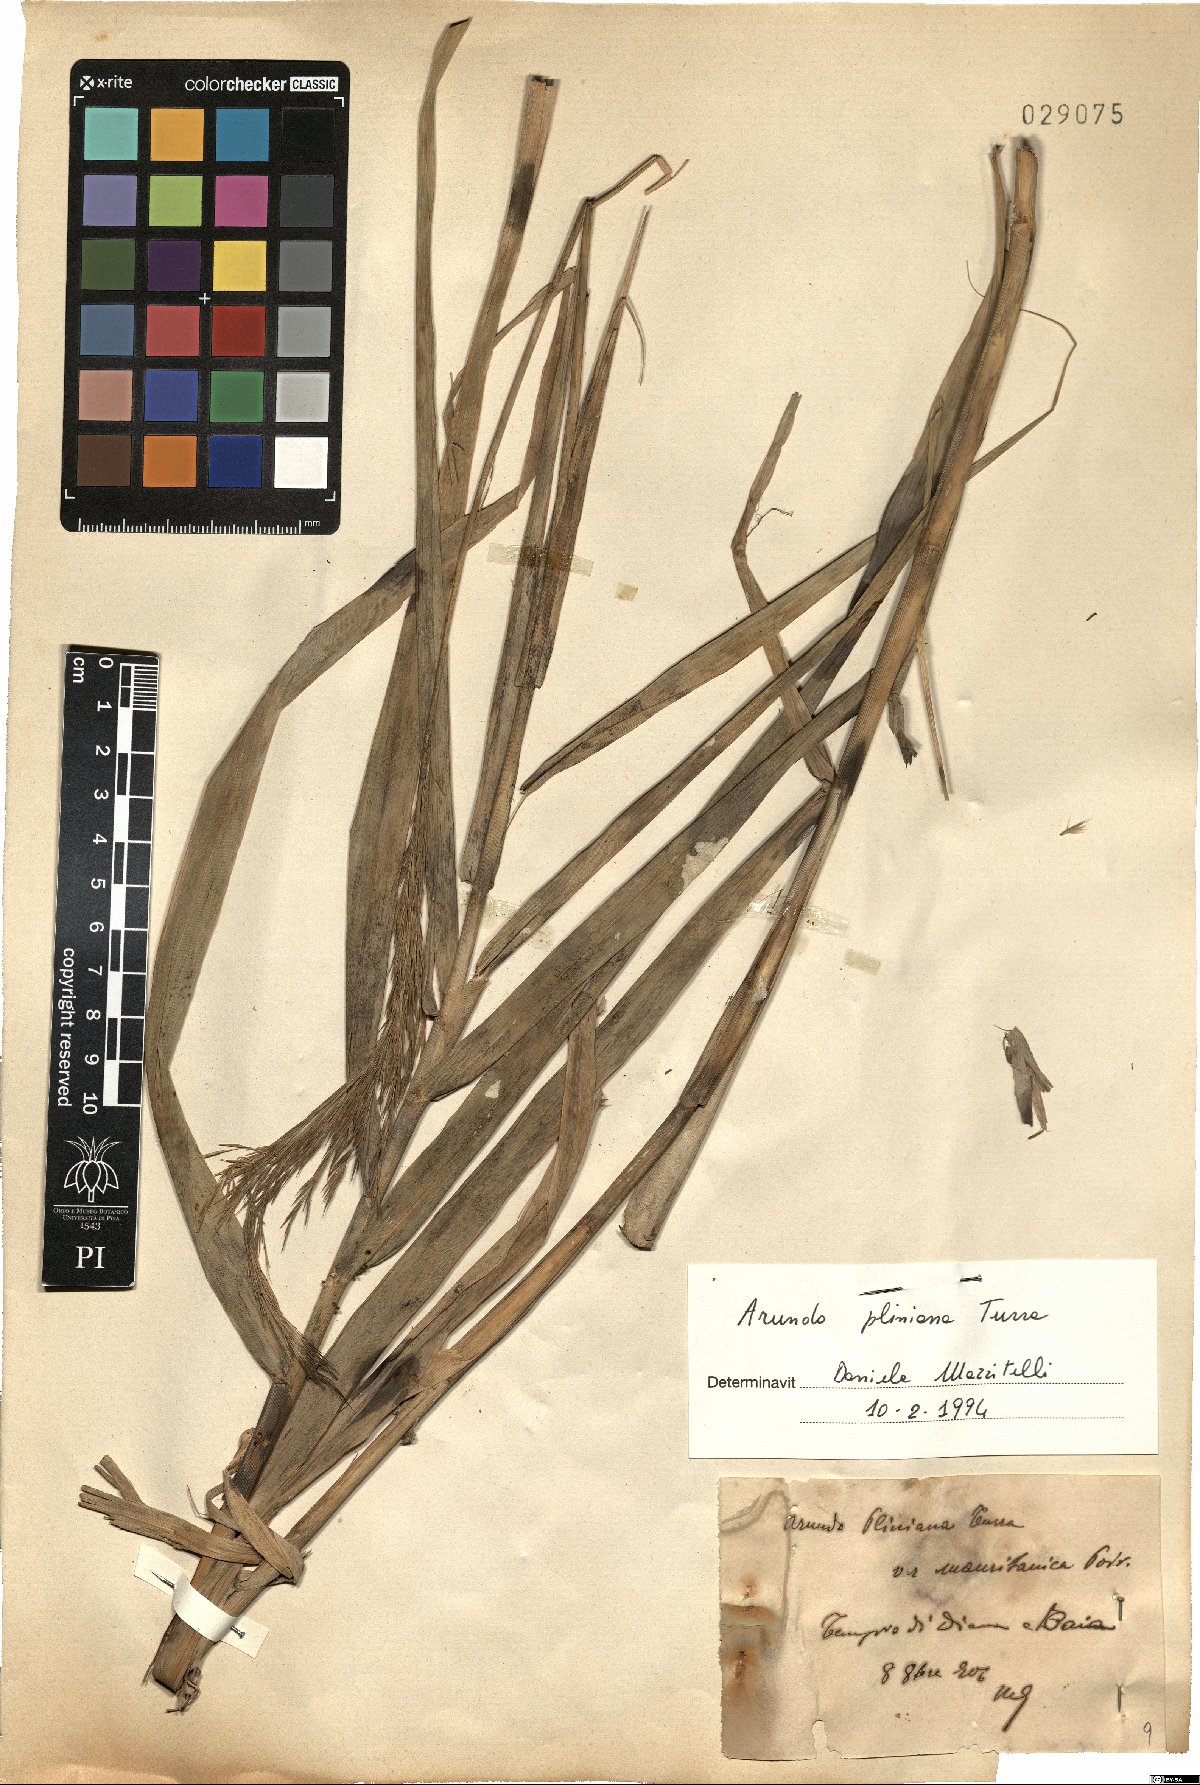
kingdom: Plantae
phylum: Tracheophyta
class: Liliopsida
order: Poales
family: Poaceae
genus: Arundo
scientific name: Arundo plinii
